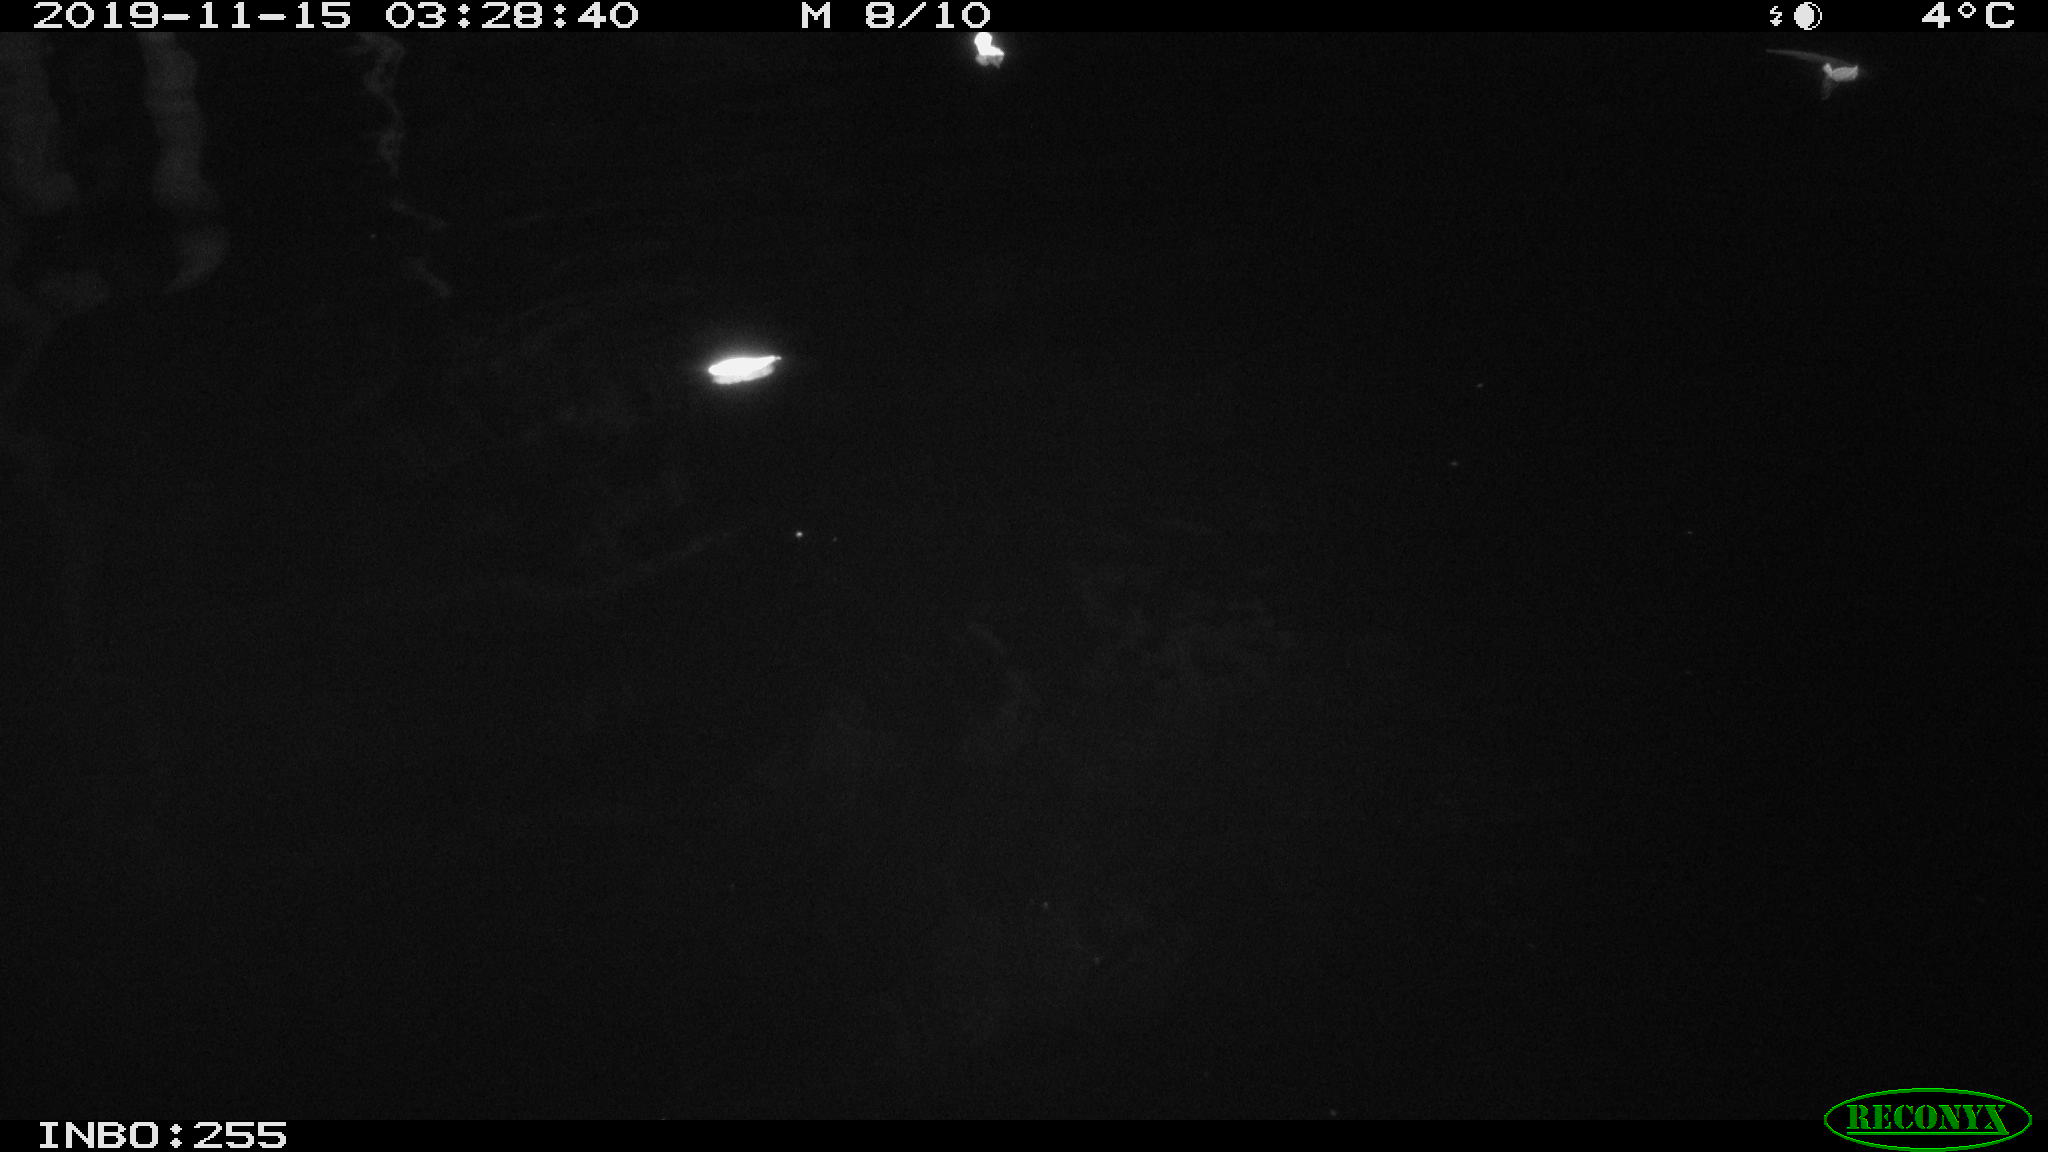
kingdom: Animalia
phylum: Chordata
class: Mammalia
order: Rodentia
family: Cricetidae
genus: Ondatra
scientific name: Ondatra zibethicus
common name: Muskrat
